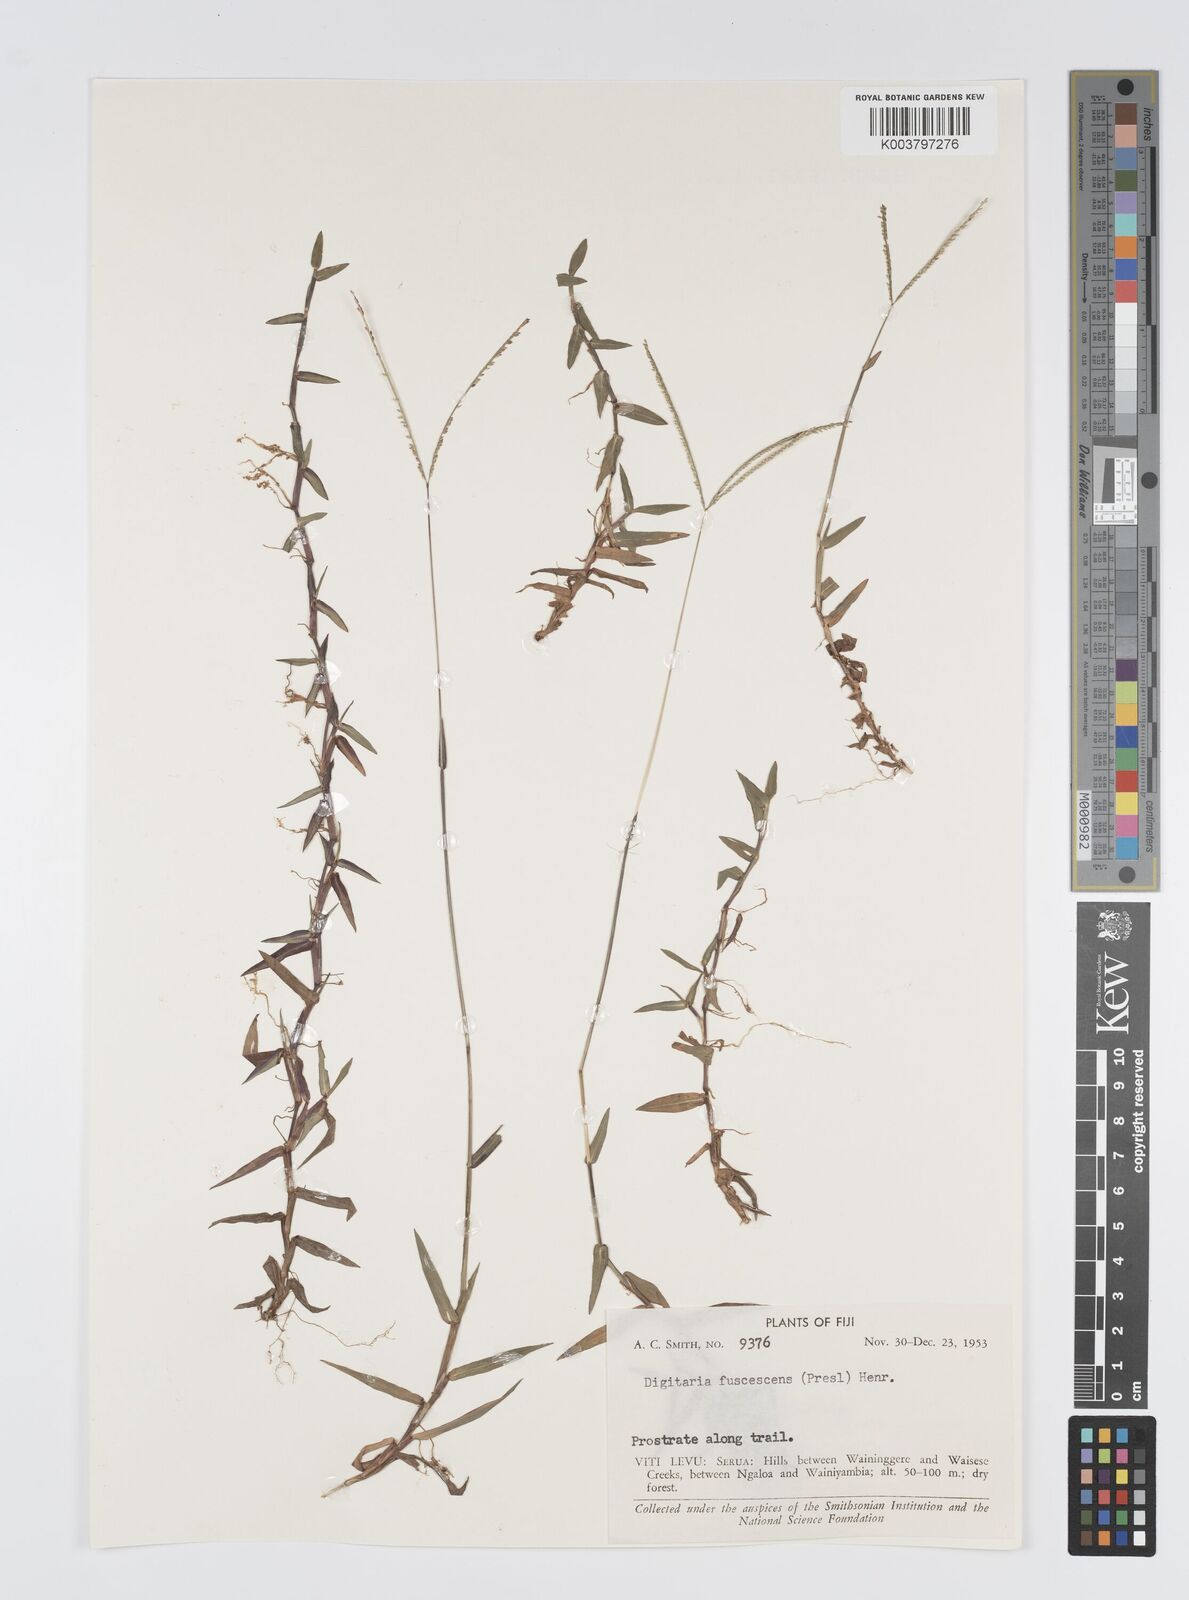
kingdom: Plantae
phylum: Tracheophyta
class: Liliopsida
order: Poales
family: Poaceae
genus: Digitaria
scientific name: Digitaria fuscescens
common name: Yellow crabgrass
